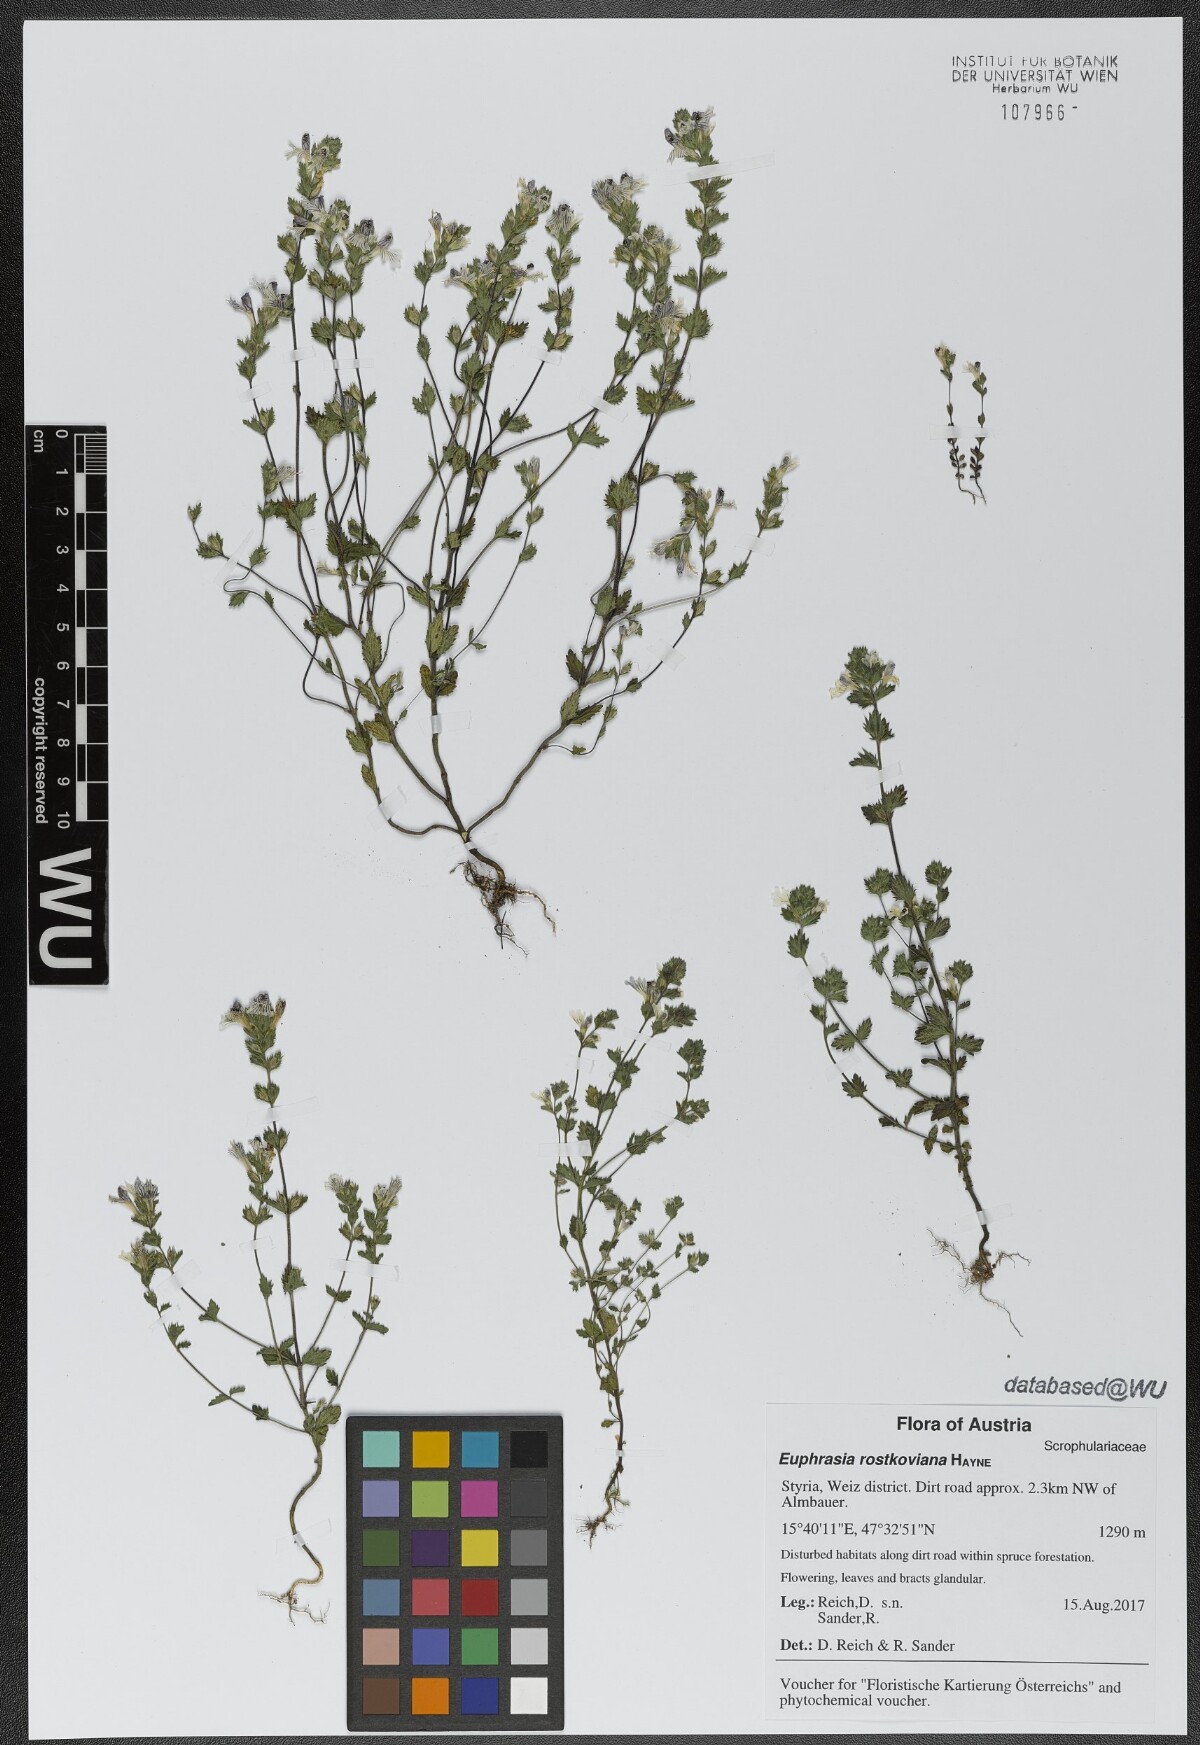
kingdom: Plantae
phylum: Tracheophyta
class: Magnoliopsida
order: Lamiales
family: Orobanchaceae
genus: Euphrasia
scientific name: Euphrasia officinalis
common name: Eyebright
